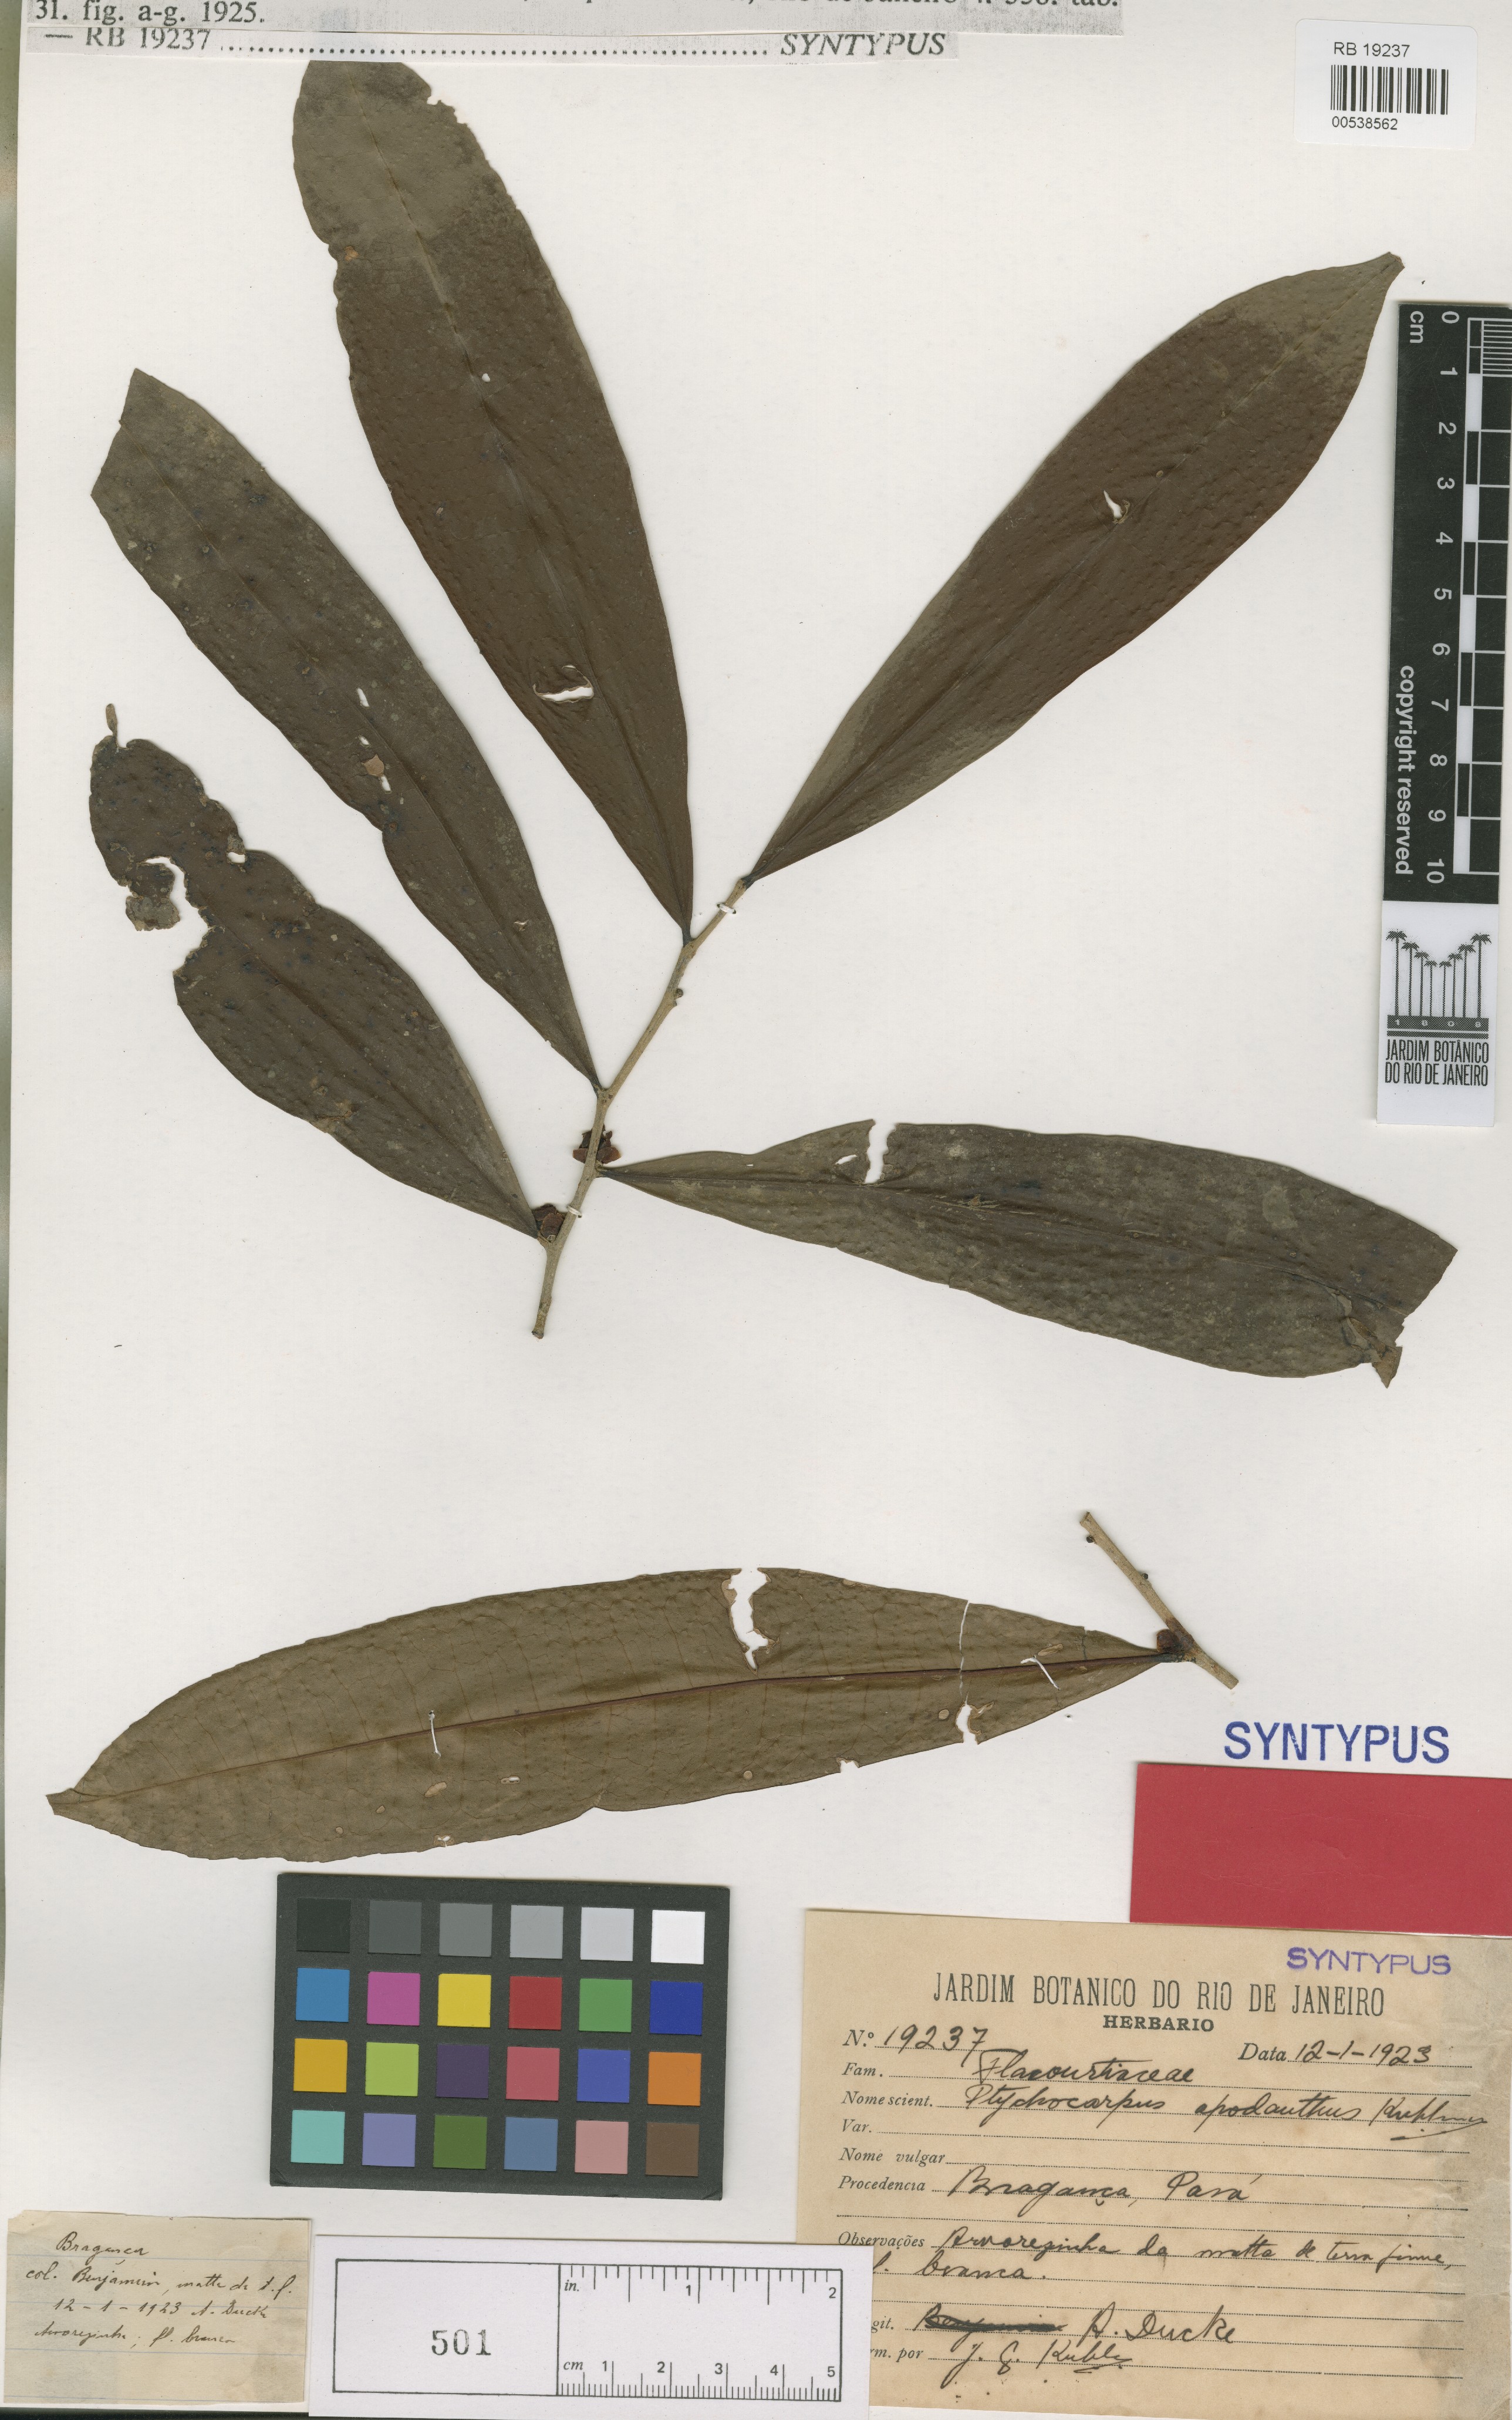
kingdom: Plantae
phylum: Tracheophyta
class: Magnoliopsida
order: Malpighiales
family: Salicaceae
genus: Casearia
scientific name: Casearia apodantha
